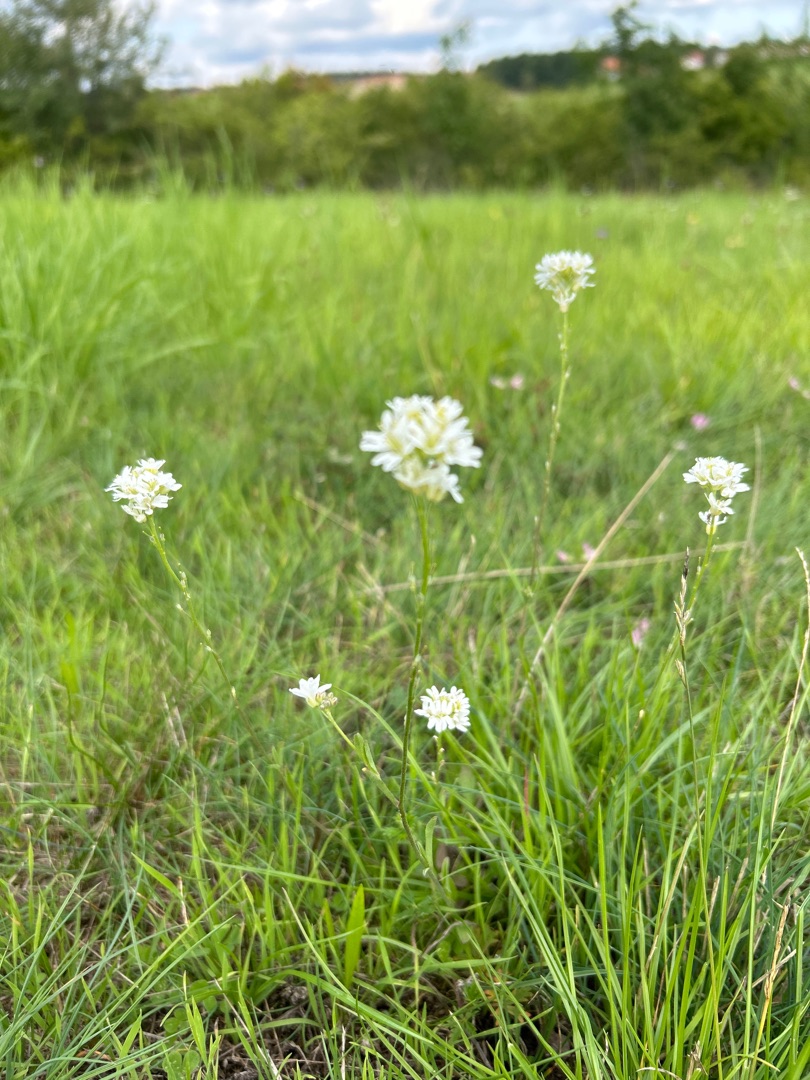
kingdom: Plantae
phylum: Tracheophyta
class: Magnoliopsida
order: Brassicales
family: Brassicaceae
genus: Berteroa
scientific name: Berteroa incana
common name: Kløvplade
